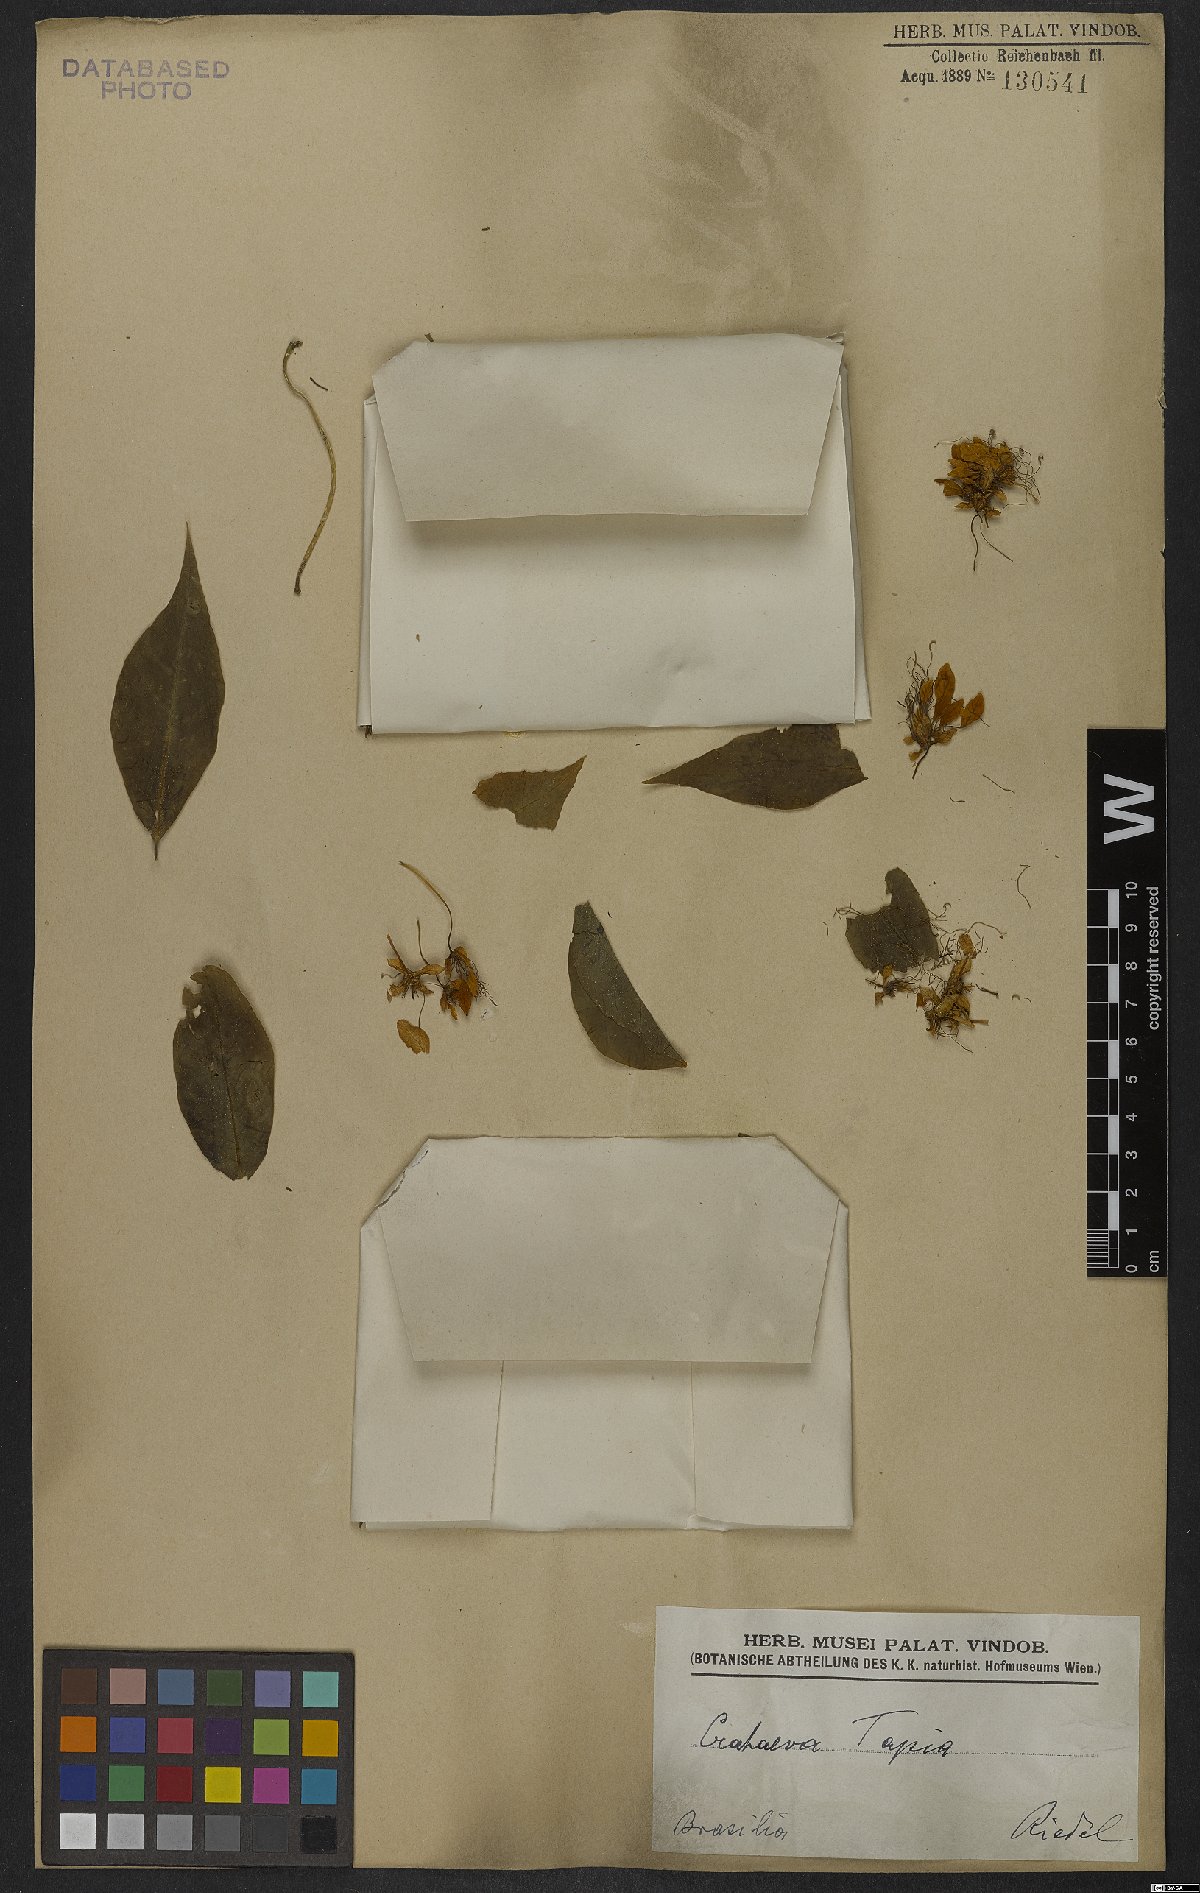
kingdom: Plantae
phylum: Tracheophyta
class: Magnoliopsida
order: Brassicales
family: Capparaceae
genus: Crateva
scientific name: Crateva tapia
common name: Garlic-pear
